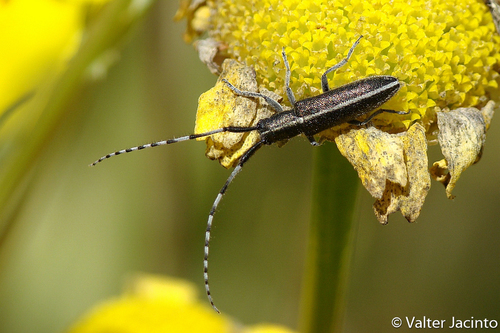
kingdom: Animalia
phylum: Arthropoda
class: Insecta
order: Coleoptera
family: Cerambycidae
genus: Agapanthia
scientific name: Agapanthia suturalis
